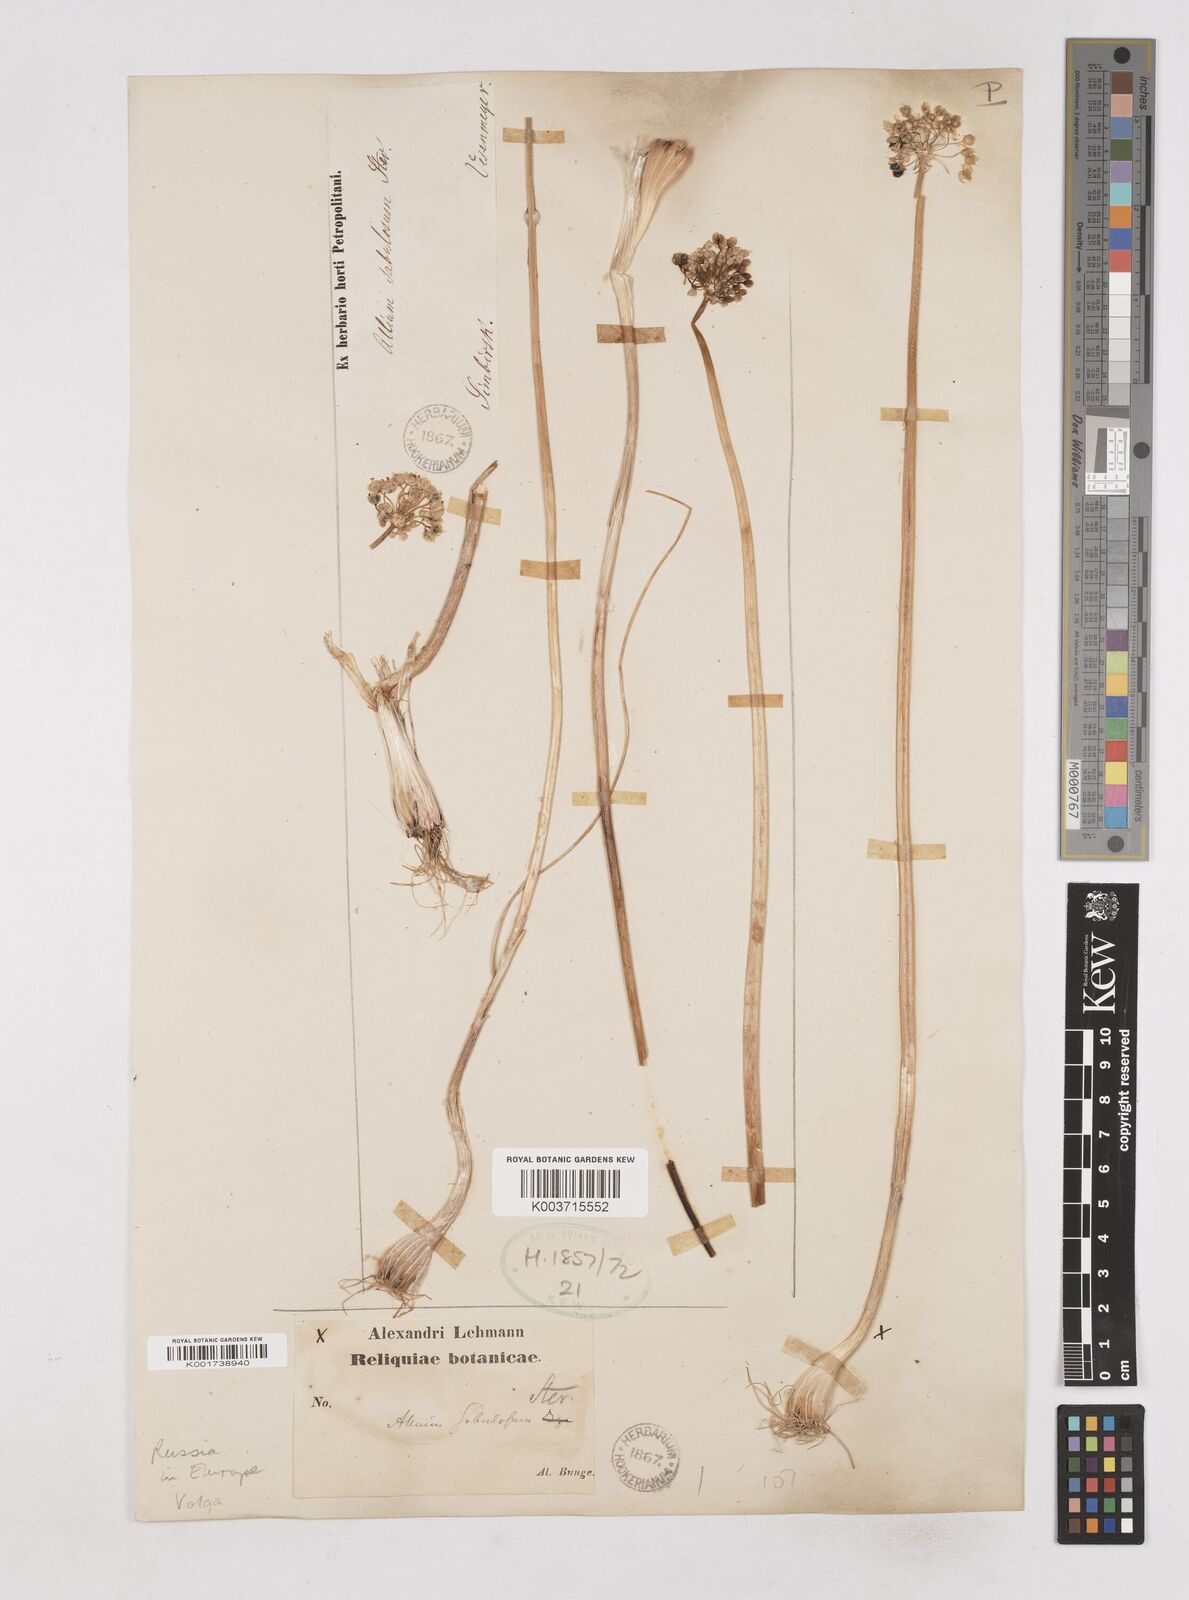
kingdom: Plantae
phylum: Tracheophyta
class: Liliopsida
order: Asparagales
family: Amaryllidaceae
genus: Allium
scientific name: Allium sabulosum
